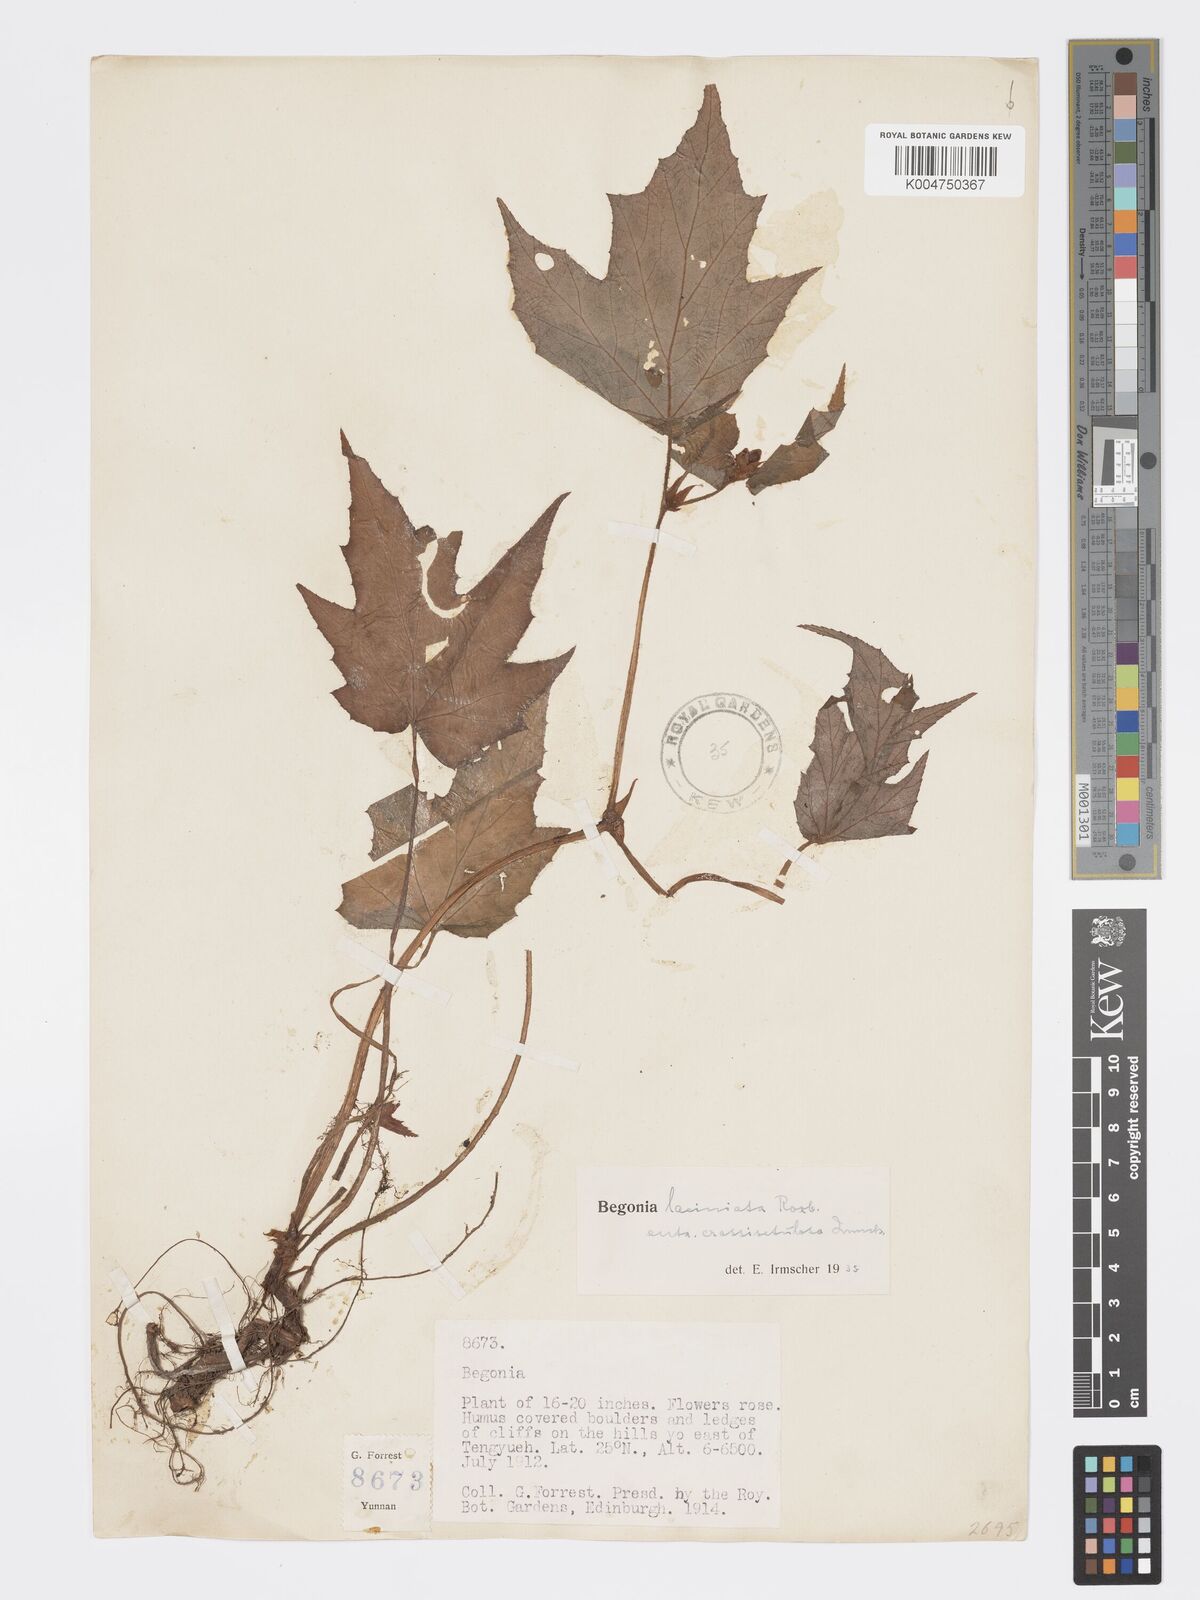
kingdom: Plantae
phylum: Tracheophyta
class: Magnoliopsida
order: Cucurbitales
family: Begoniaceae
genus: Begonia
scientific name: Begonia palmata
